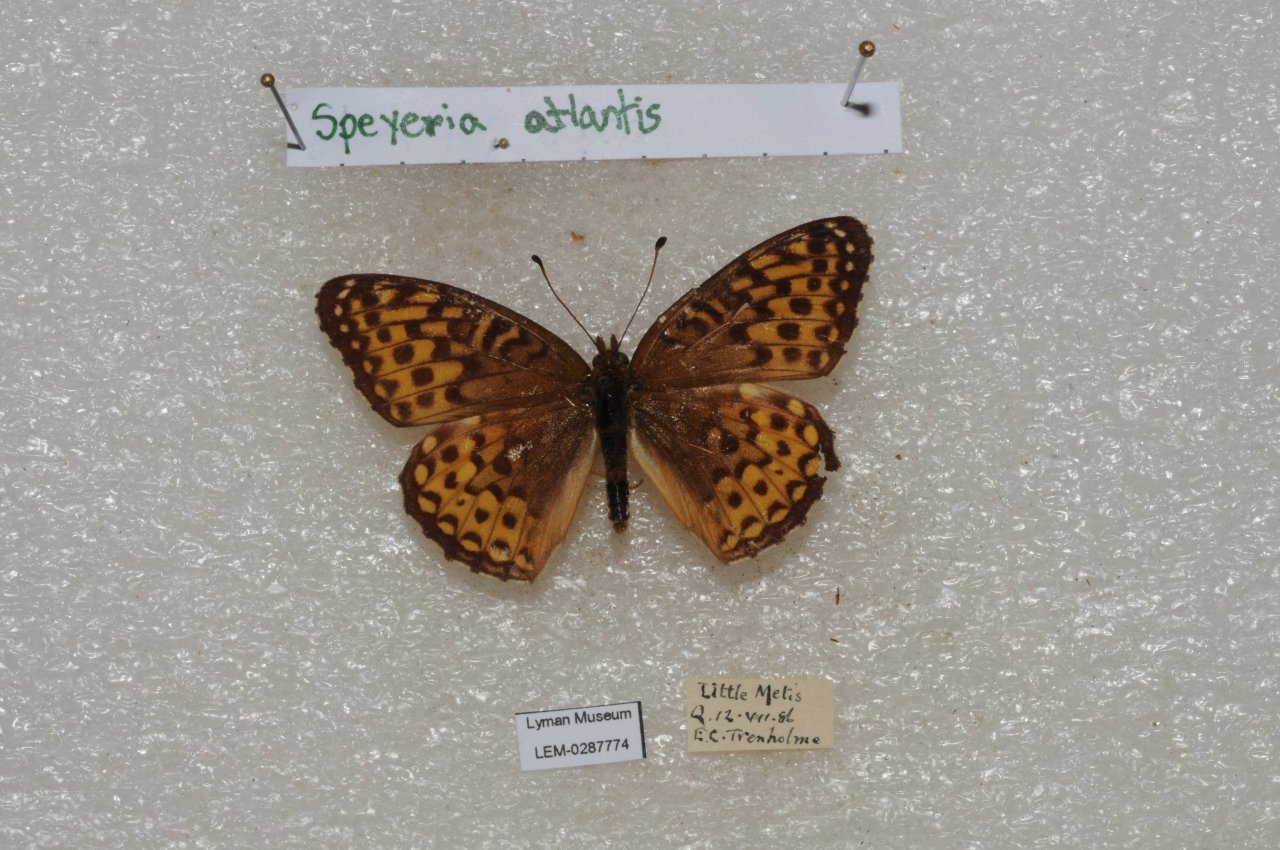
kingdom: Animalia
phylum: Arthropoda
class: Insecta
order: Lepidoptera
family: Nymphalidae
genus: Speyeria
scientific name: Speyeria atlantis
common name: Atlantis Fritillary
